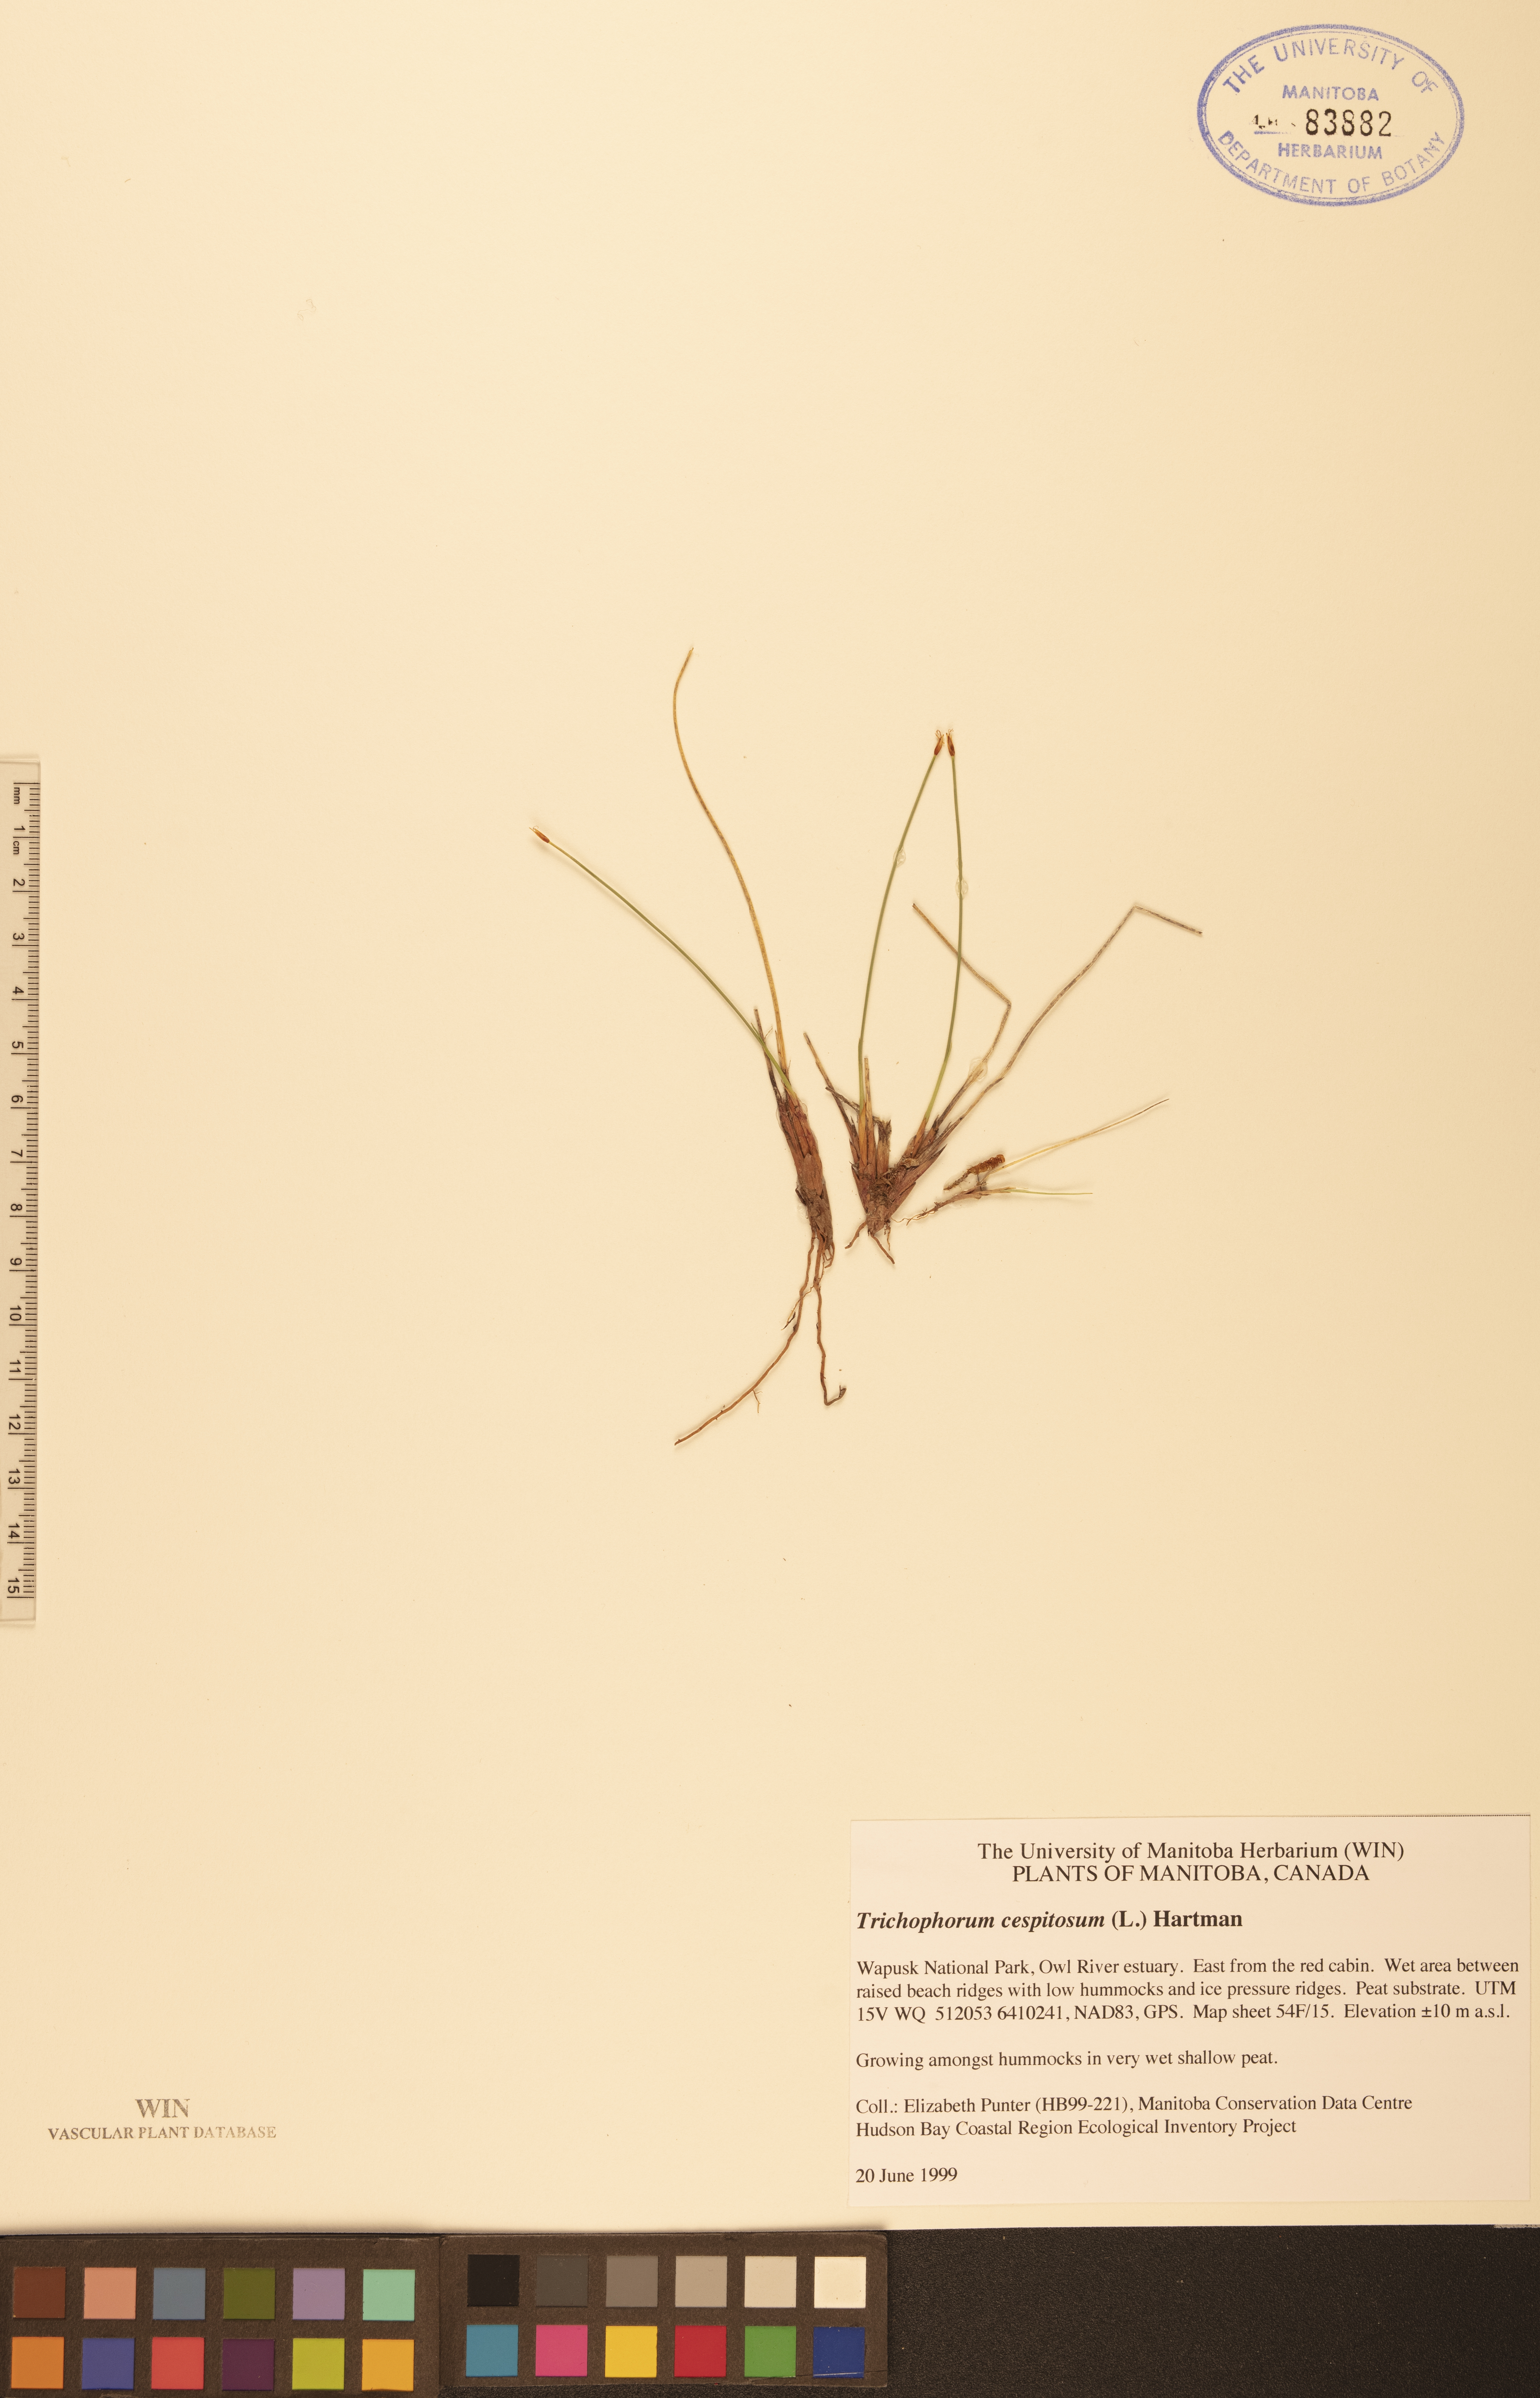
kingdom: Plantae
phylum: Tracheophyta
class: Liliopsida
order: Poales
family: Cyperaceae
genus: Trichophorum
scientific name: Trichophorum cespitosum
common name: Cespitose bulrush
